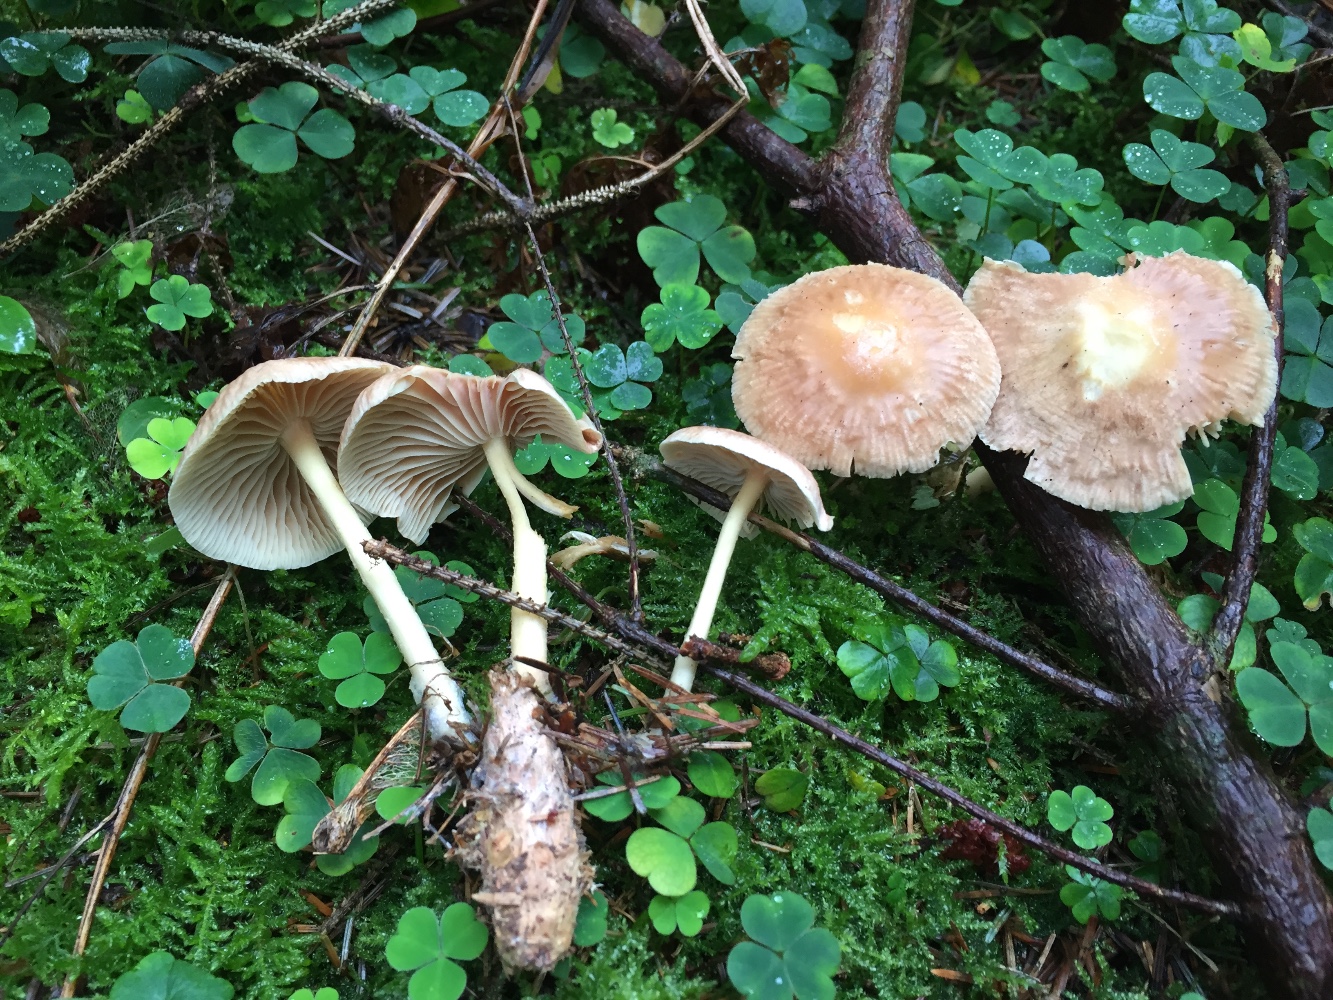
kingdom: Fungi
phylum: Basidiomycota
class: Agaricomycetes
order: Agaricales
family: Omphalotaceae
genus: Collybiopsis
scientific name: Collybiopsis peronata
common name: bestøvlet fladhat
